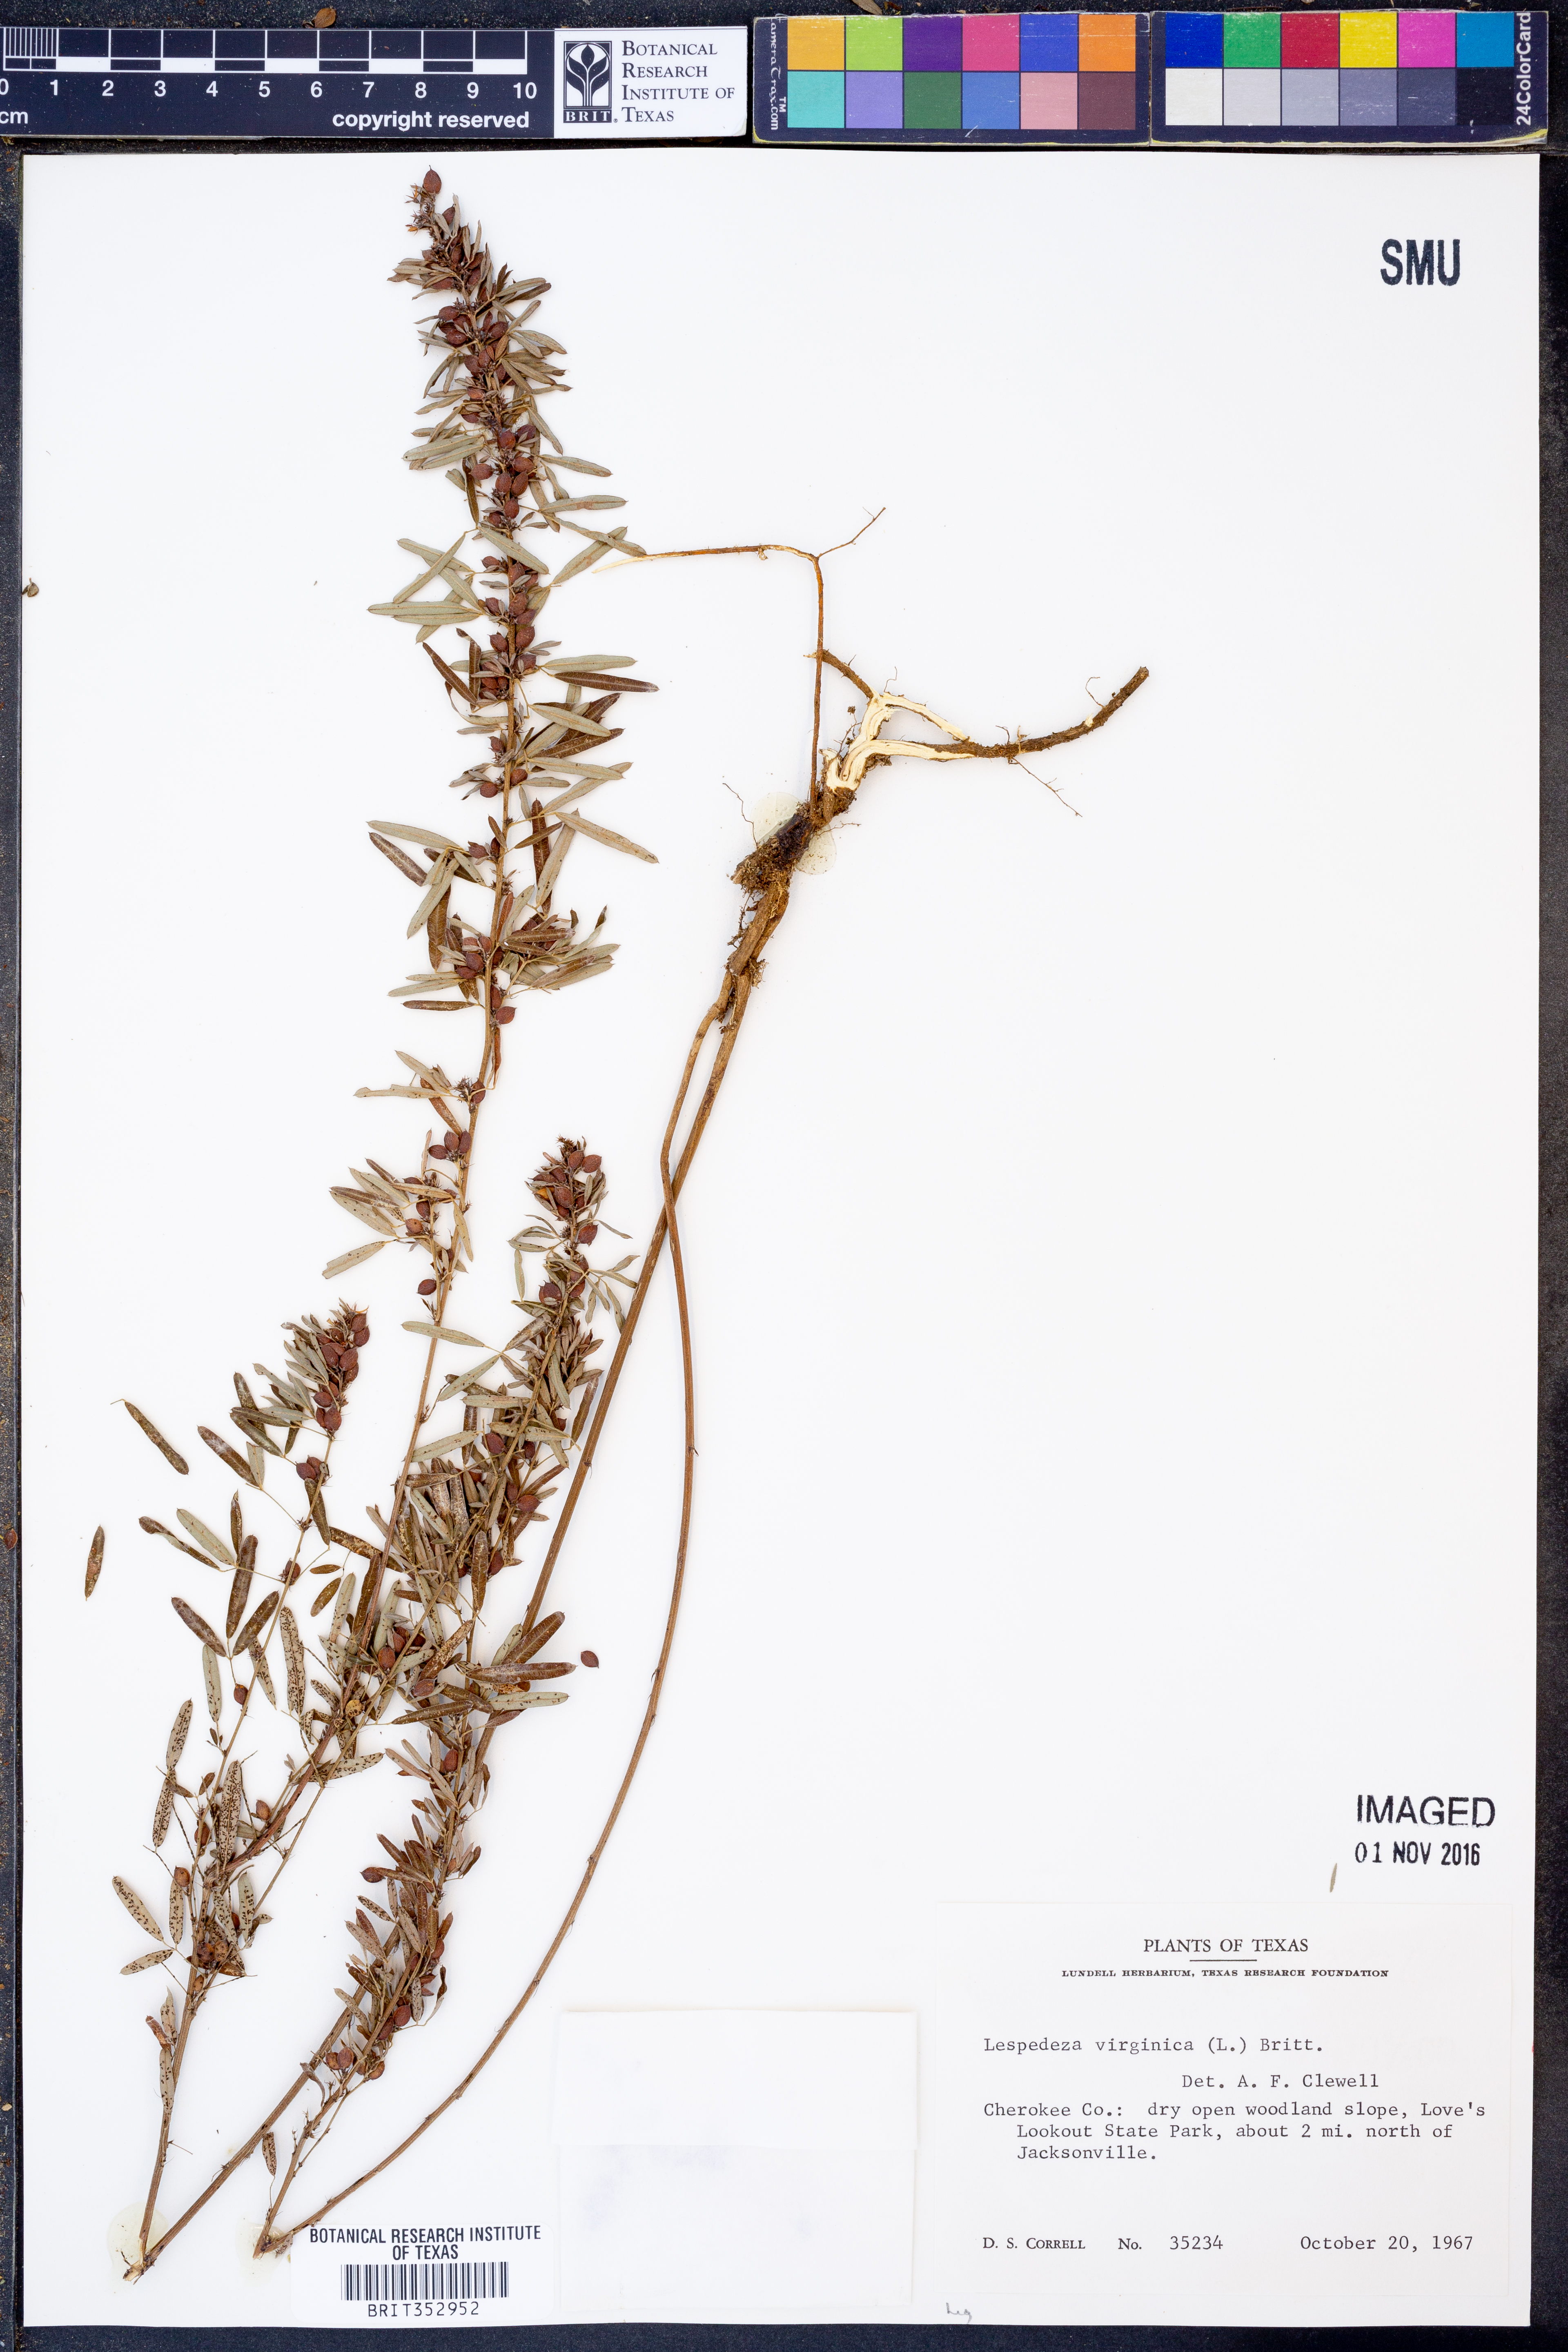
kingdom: Plantae
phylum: Tracheophyta
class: Magnoliopsida
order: Fabales
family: Fabaceae
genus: Lespedeza
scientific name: Lespedeza virginica
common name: Slender bush-clover
